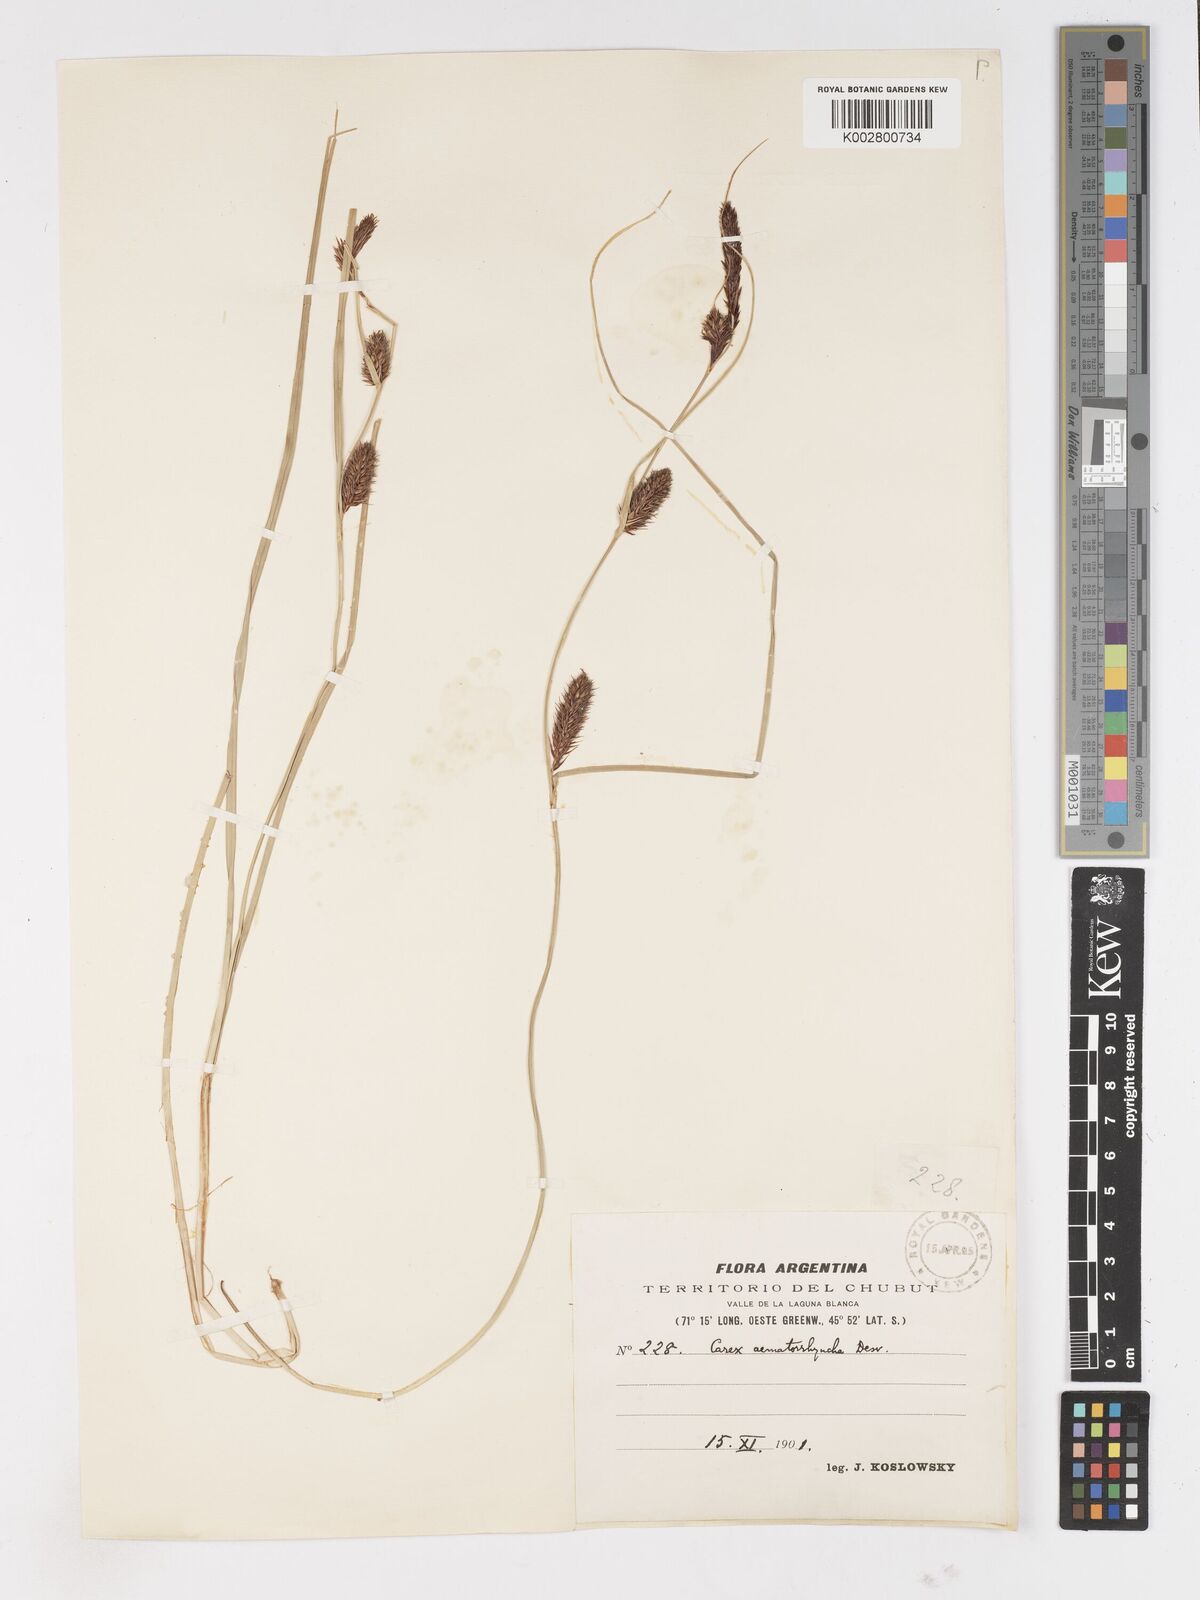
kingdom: Plantae
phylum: Tracheophyta
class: Liliopsida
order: Poales
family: Cyperaceae
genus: Carex
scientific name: Carex aematorhyncha
